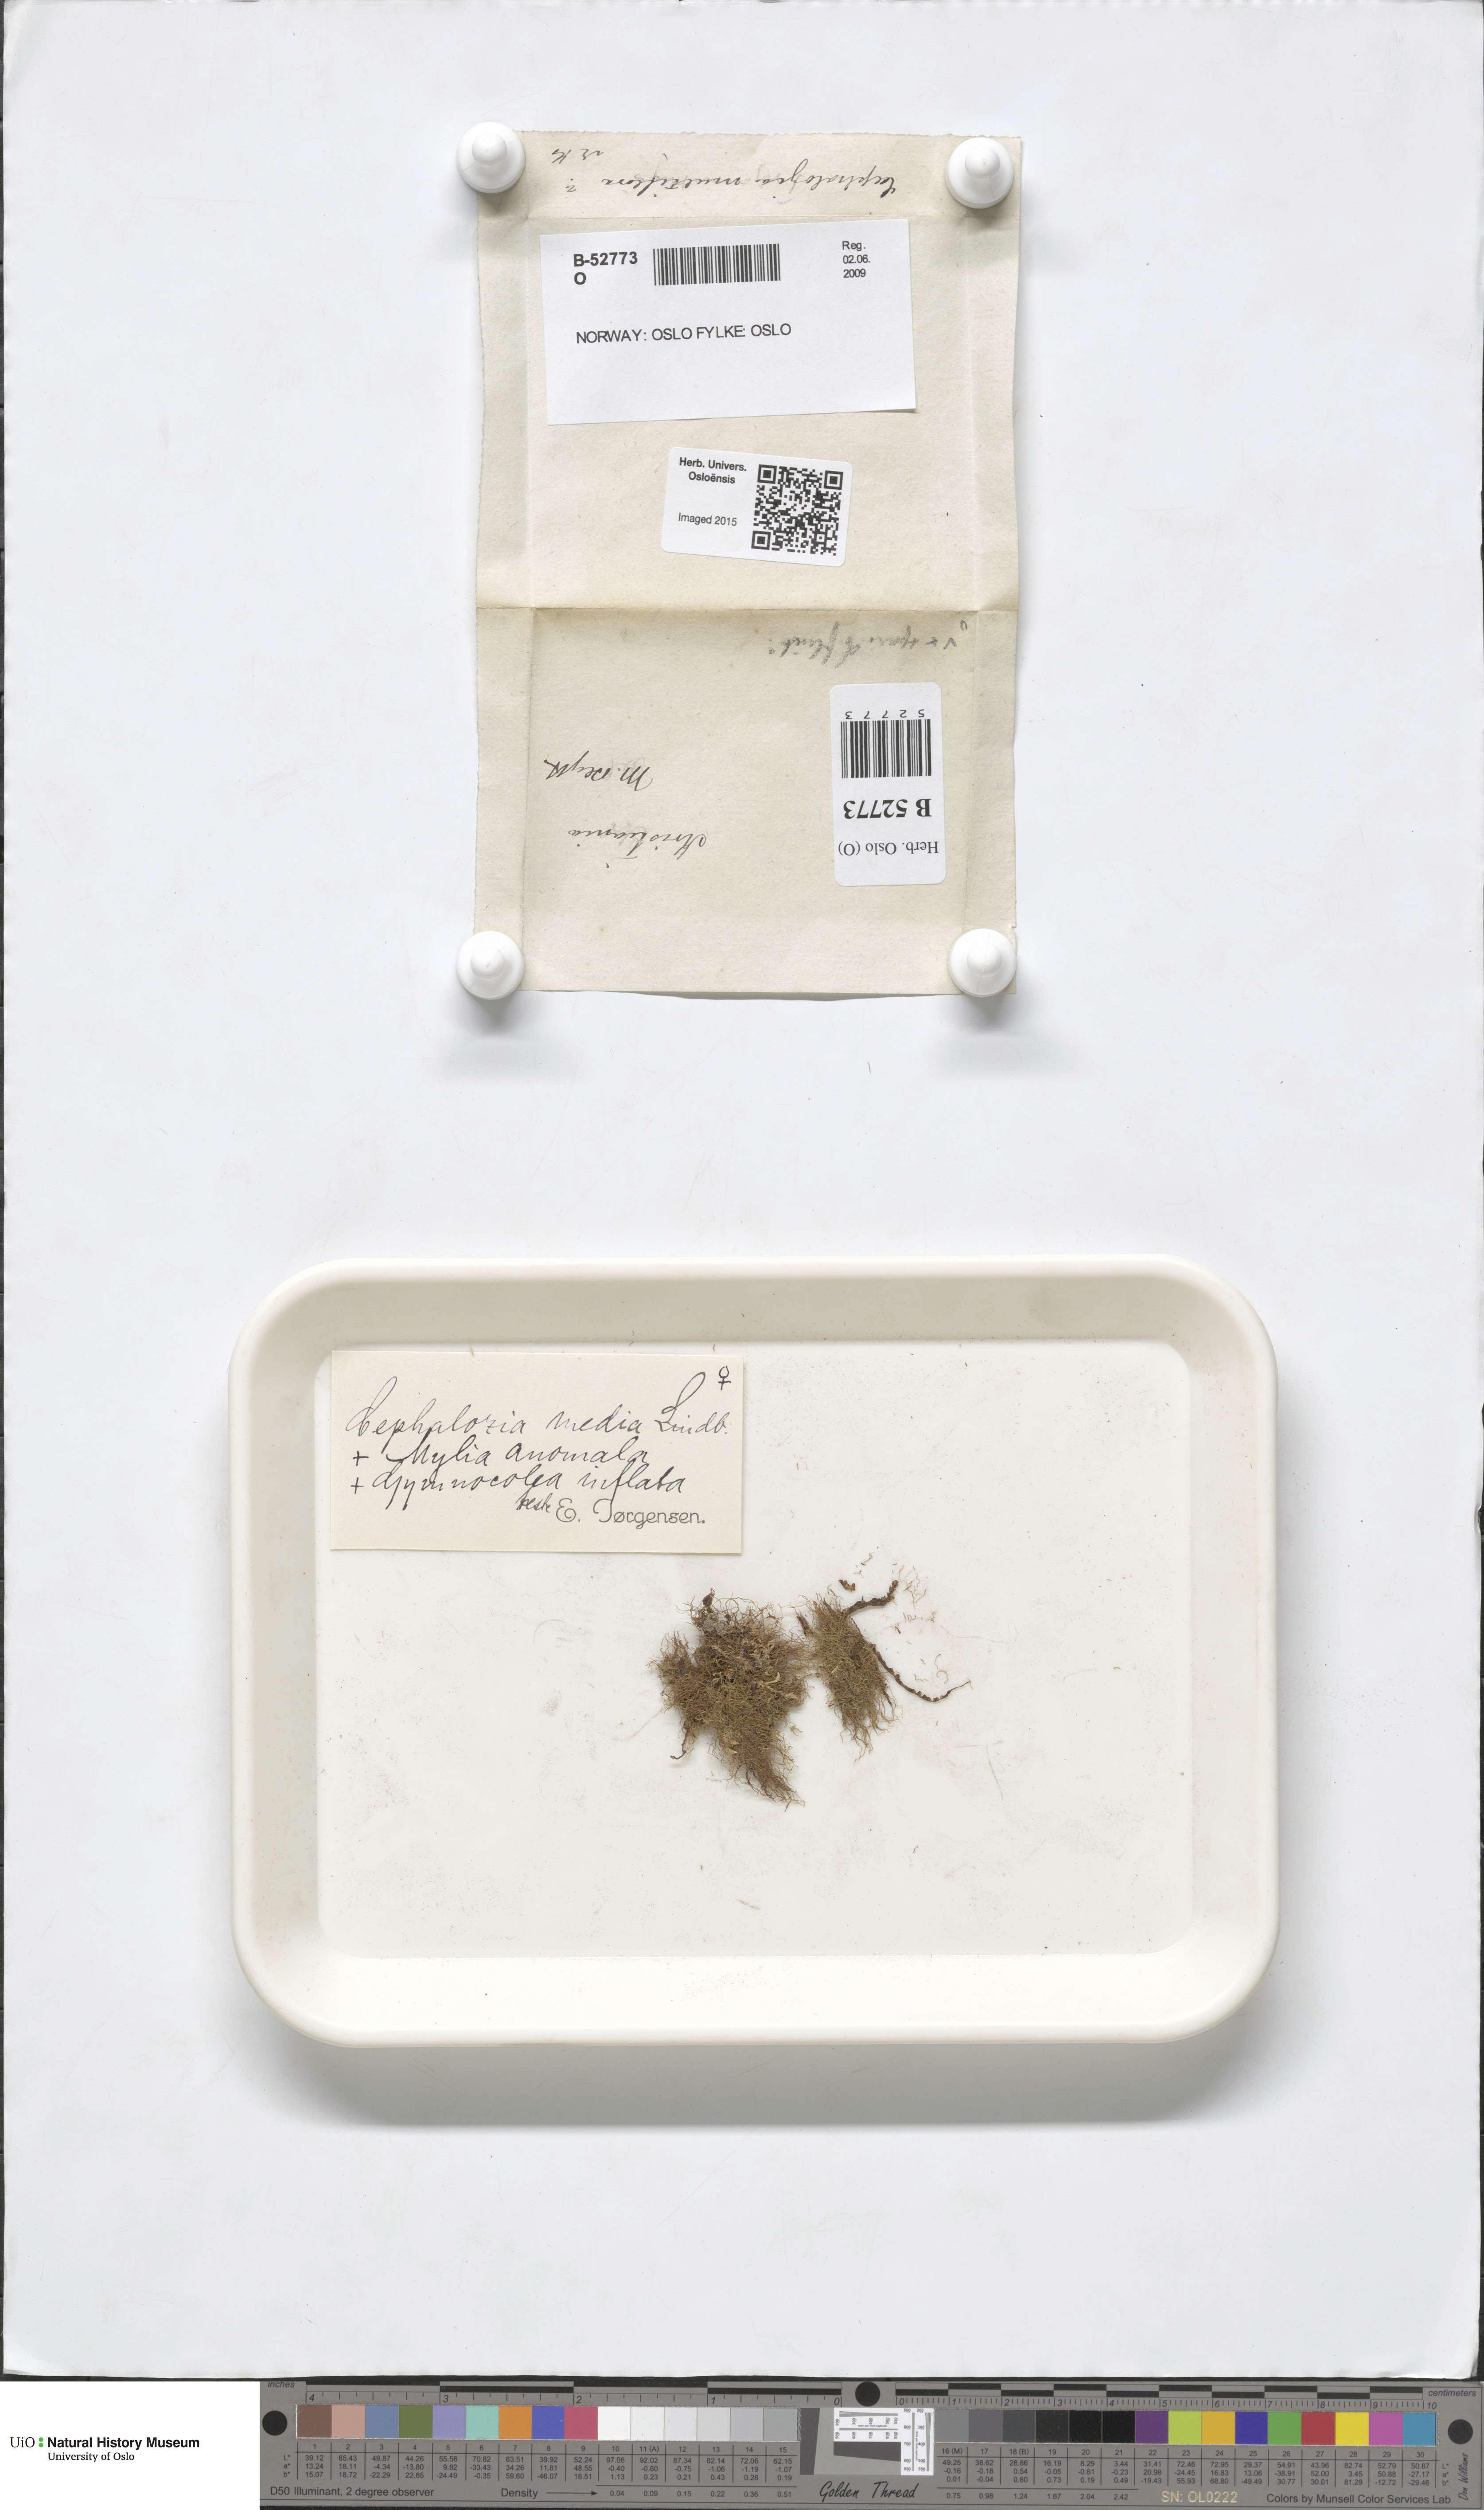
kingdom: Plantae
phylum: Marchantiophyta
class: Jungermanniopsida
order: Jungermanniales
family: Cephaloziaceae
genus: Fuscocephaloziopsis
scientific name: Fuscocephaloziopsis lunulifolia
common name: Moon-leaved pincerwort
